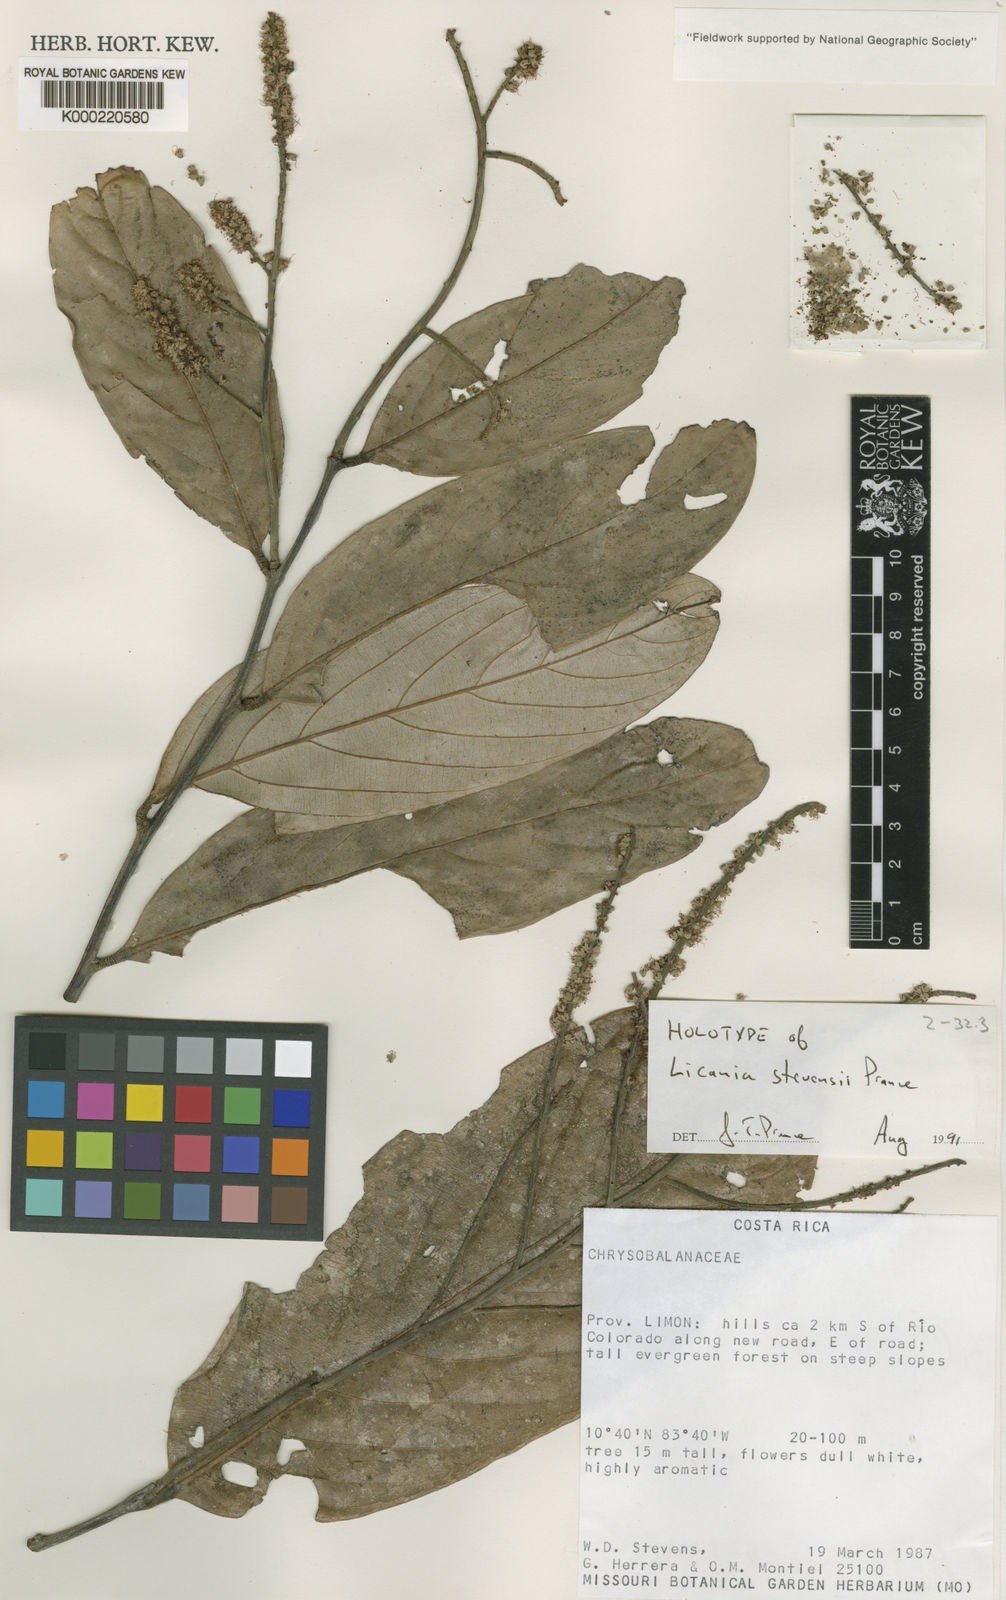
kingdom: Plantae
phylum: Tracheophyta
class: Magnoliopsida
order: Malpighiales
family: Chrysobalanaceae
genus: Leptobalanus
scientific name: Leptobalanus stevensii
